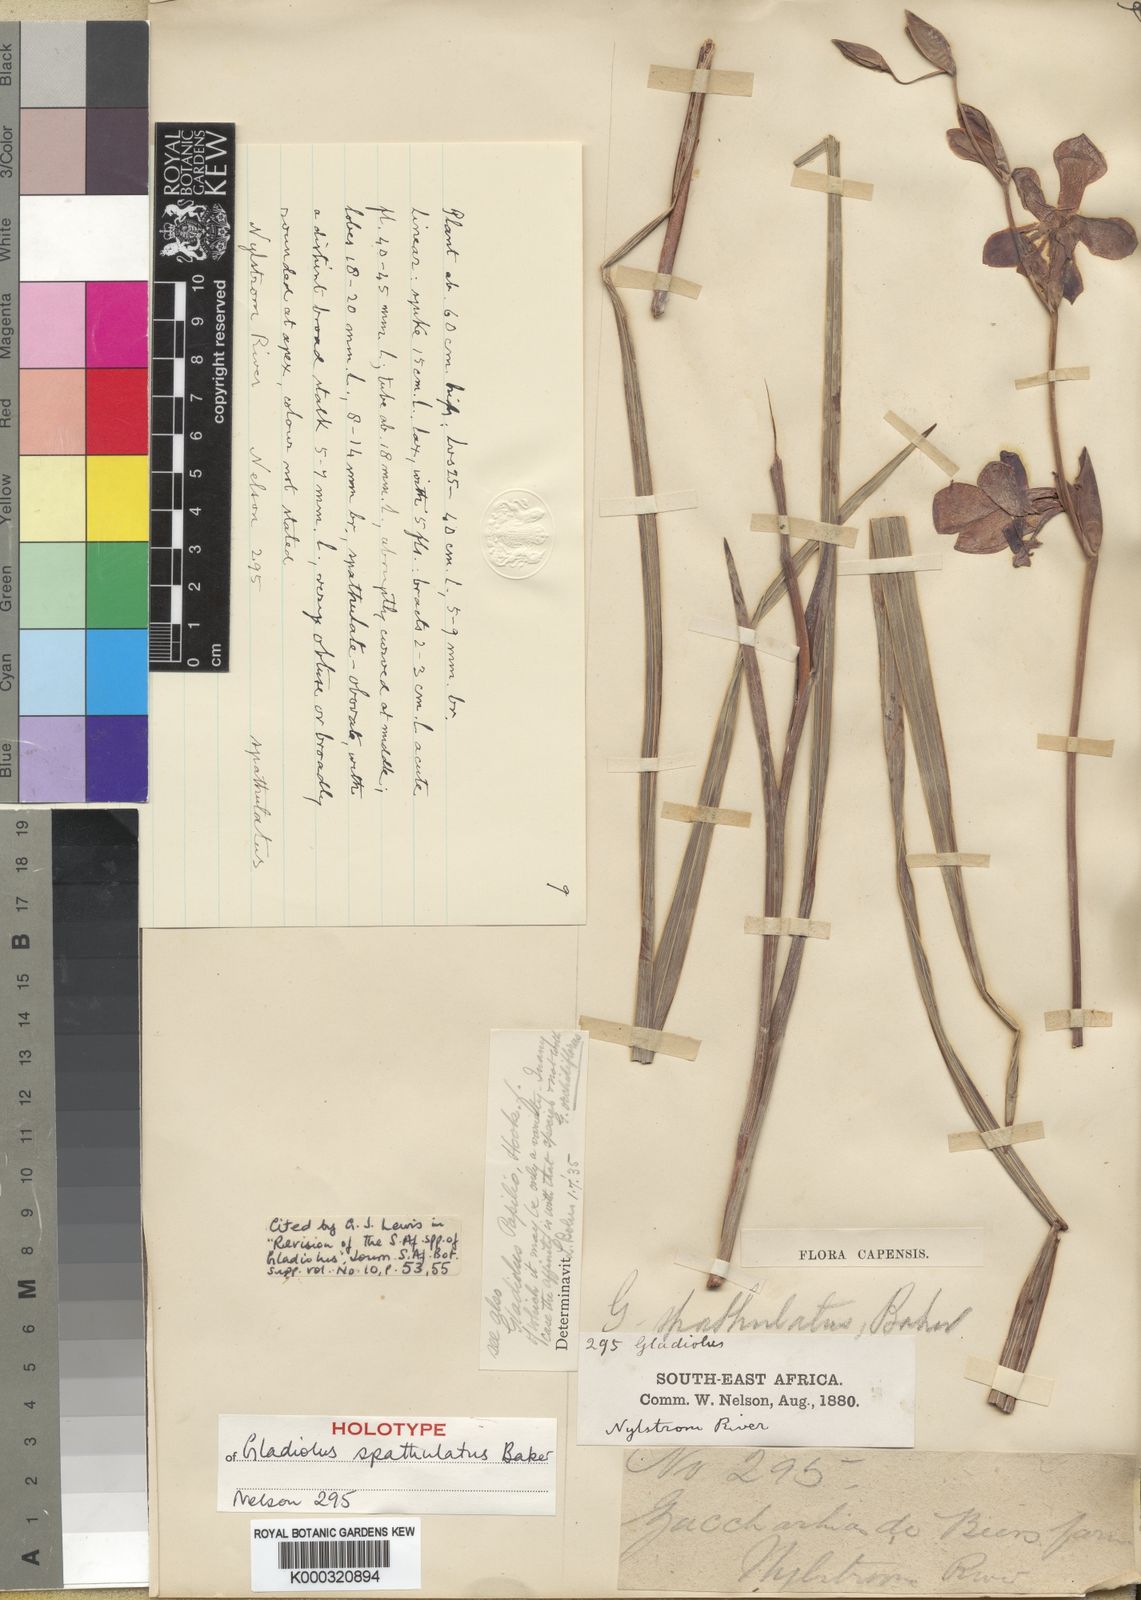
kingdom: Plantae
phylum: Tracheophyta
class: Liliopsida
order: Asparagales
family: Iridaceae
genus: Gladiolus
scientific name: Gladiolus papilio
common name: Goldblotch gladiolus
